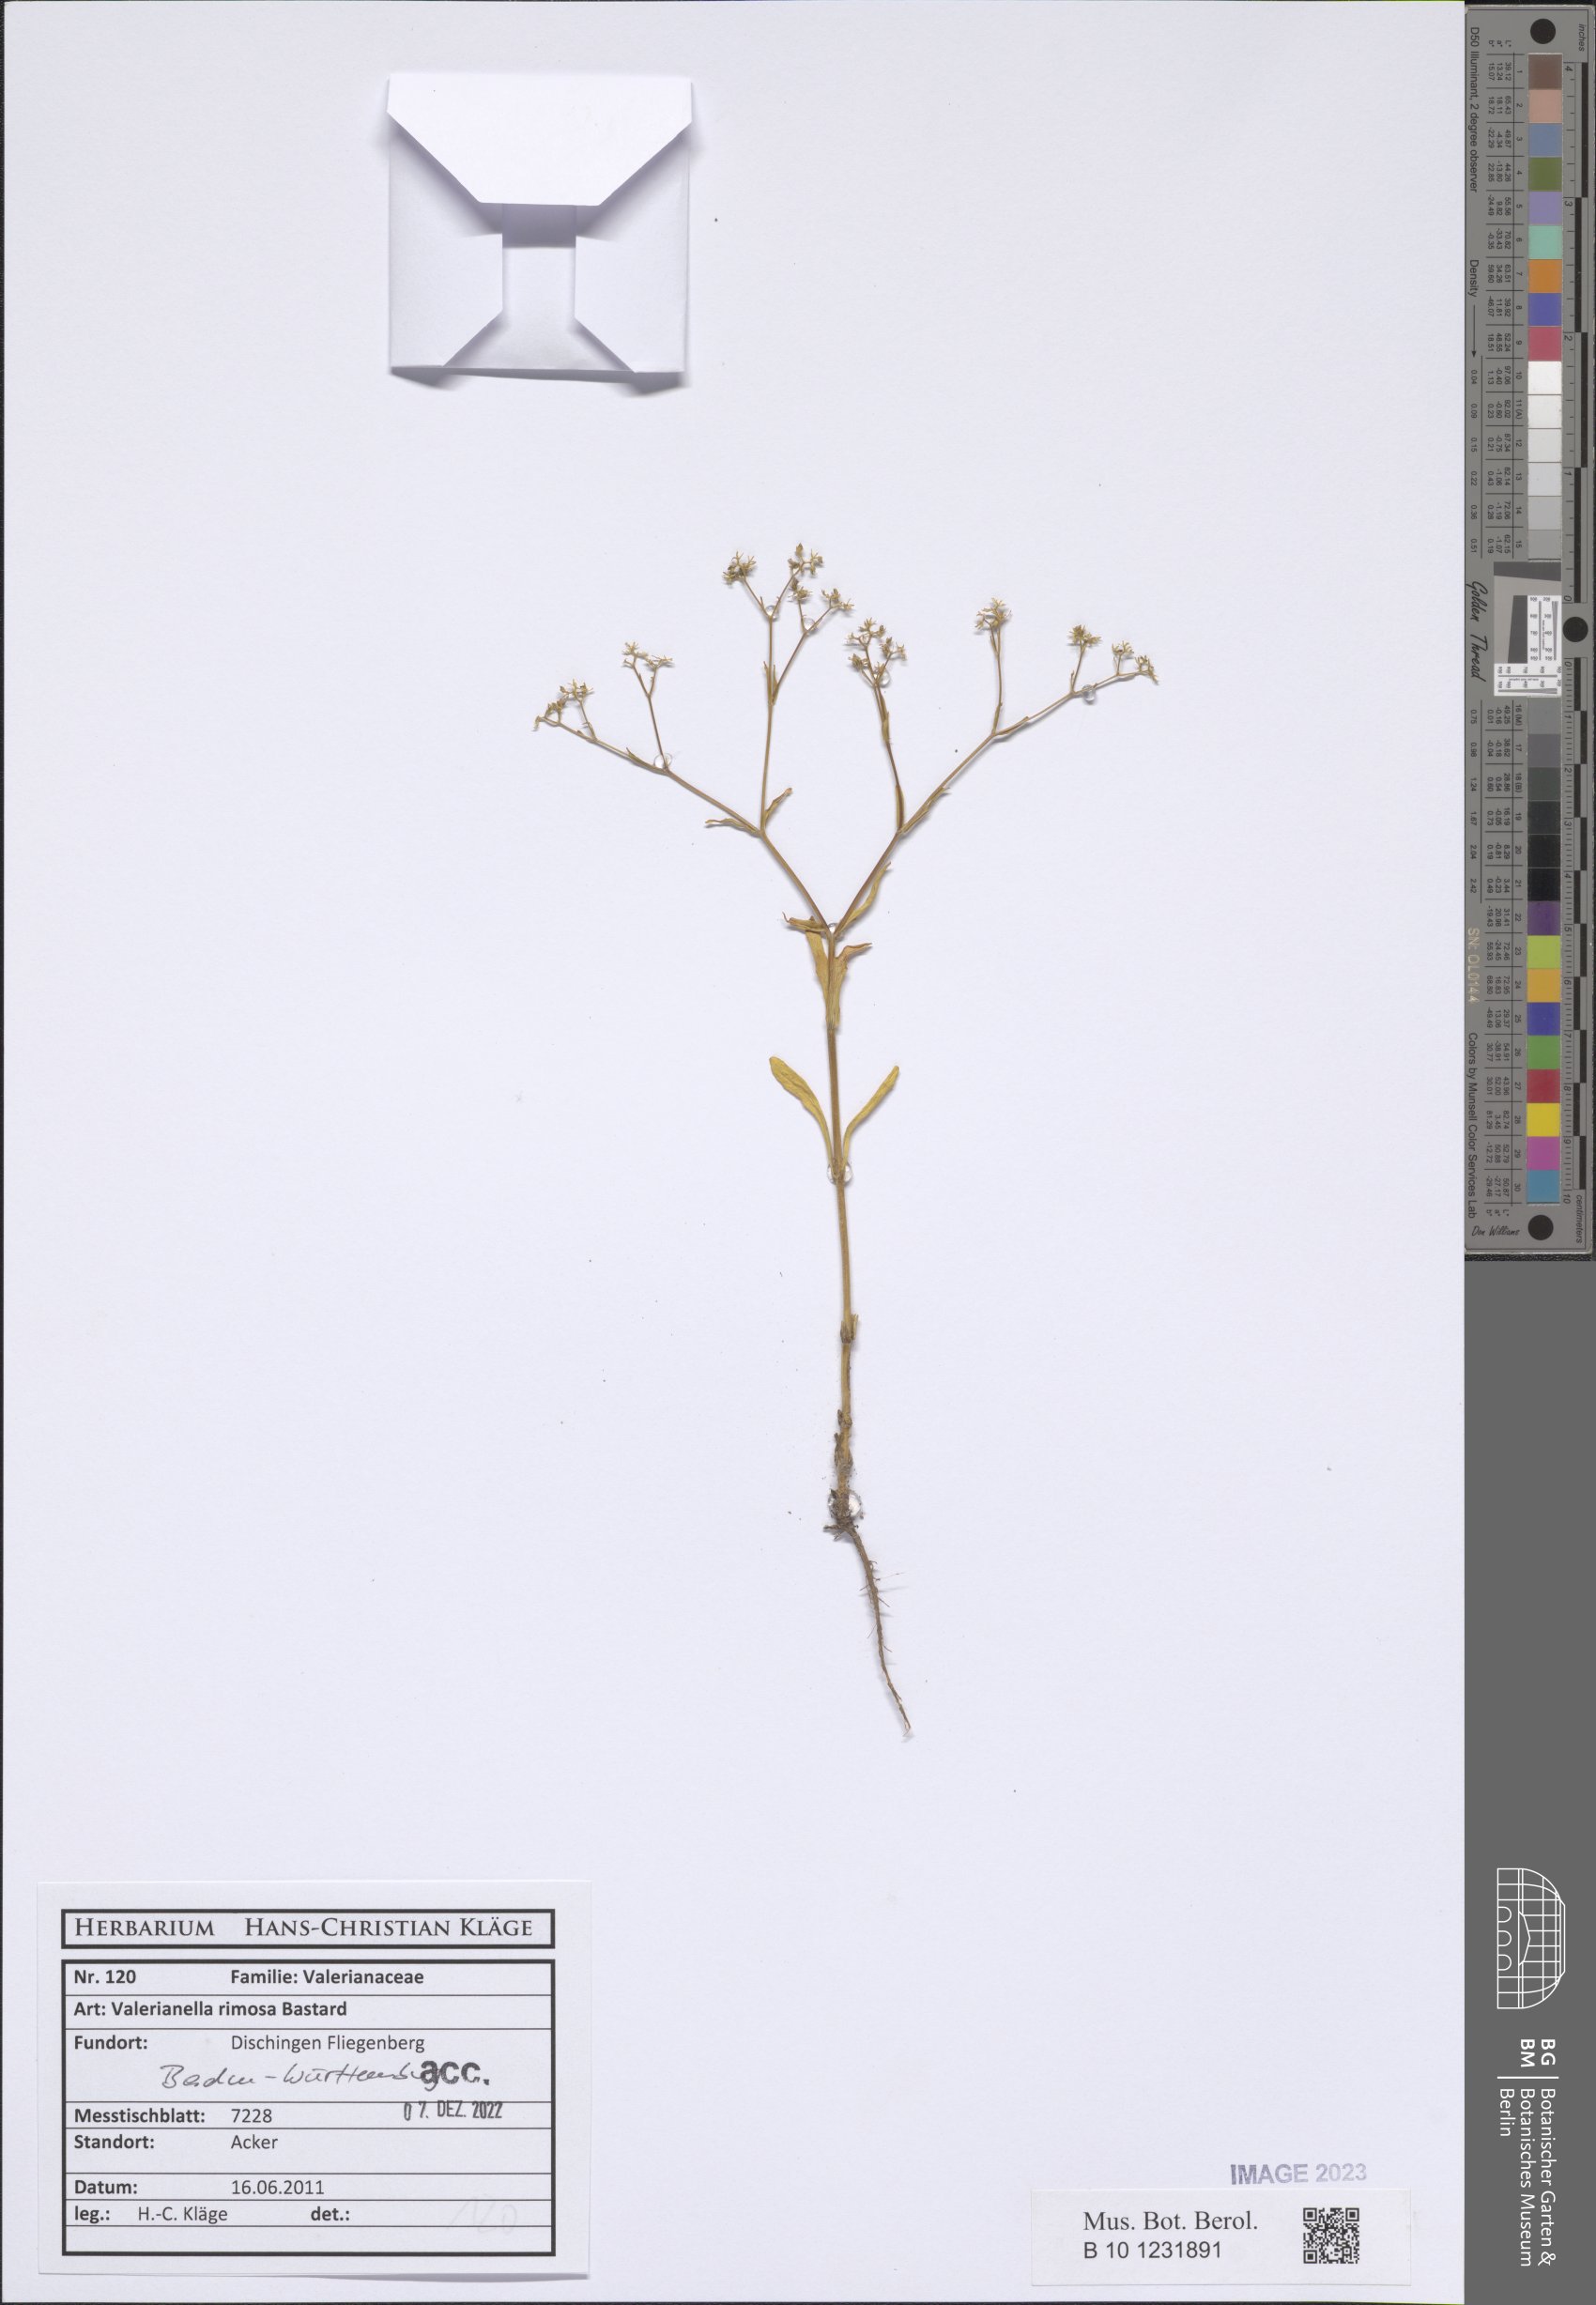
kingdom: Plantae
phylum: Tracheophyta
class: Magnoliopsida
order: Dipsacales
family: Caprifoliaceae
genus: Valerianella
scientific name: Valerianella rimosa
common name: Broad-fruited cornsalad
